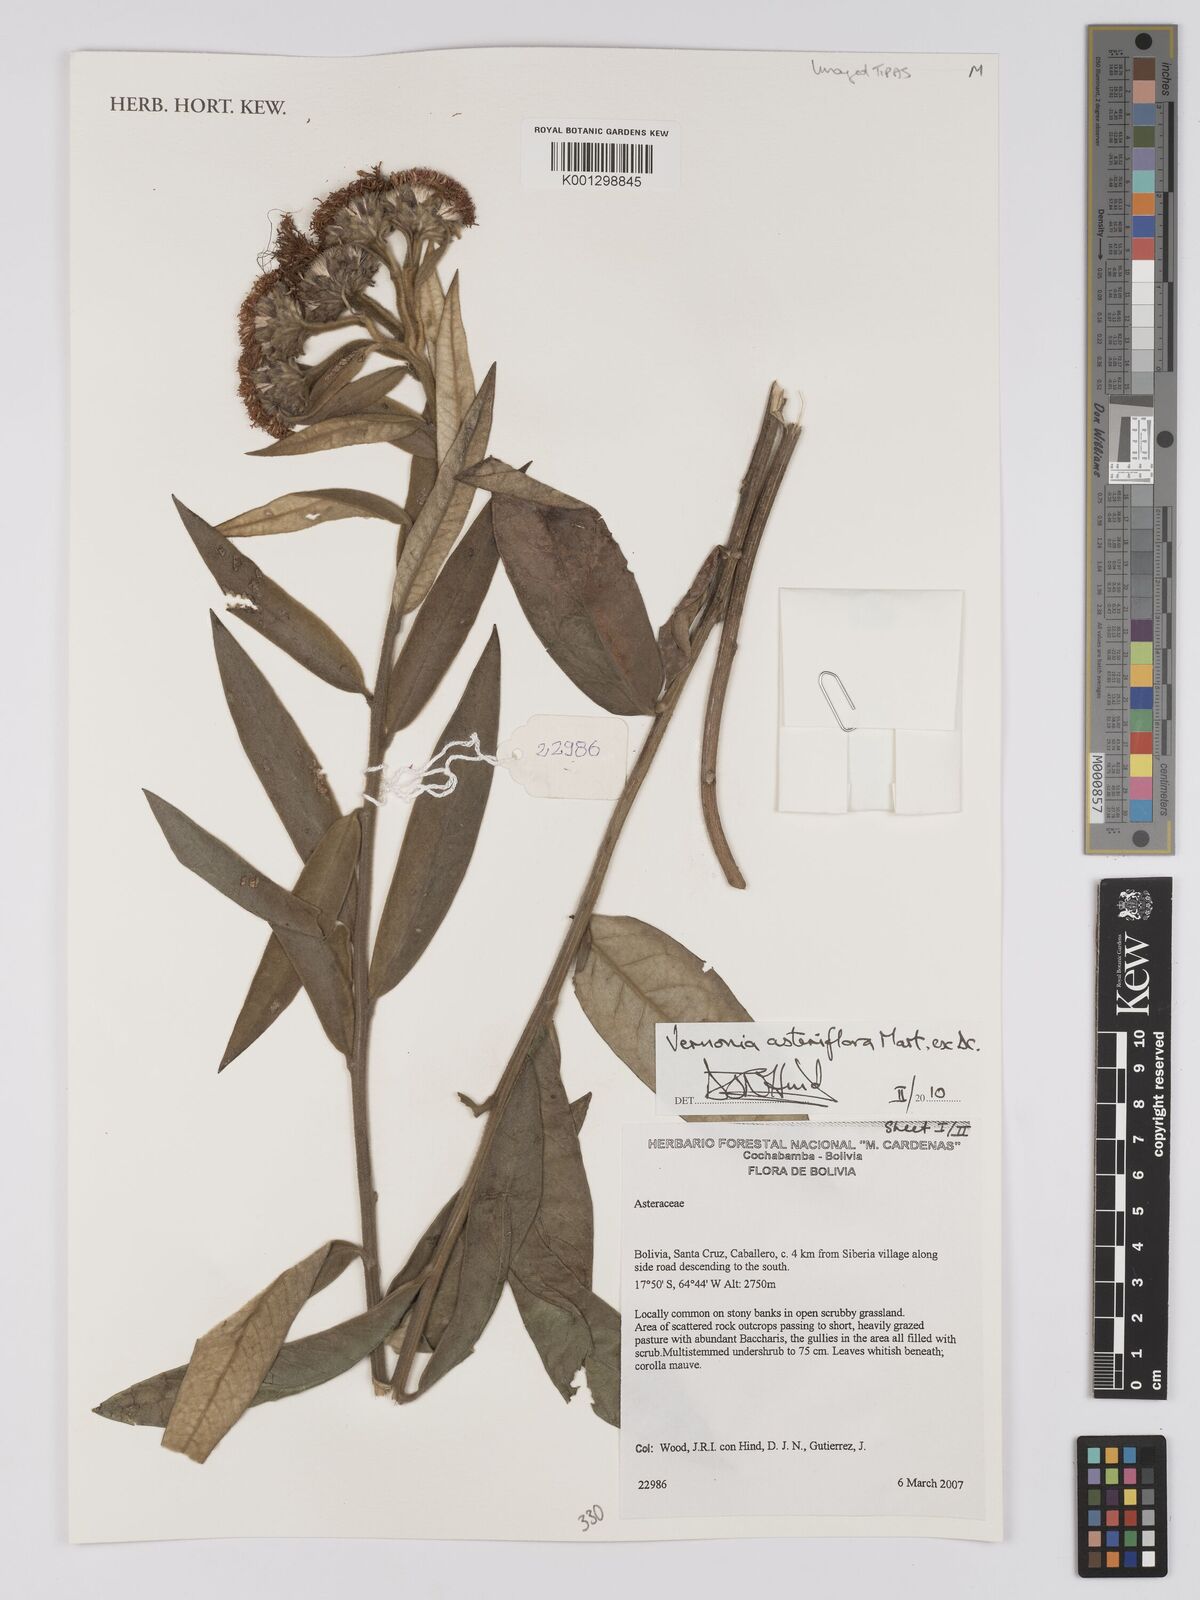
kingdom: Plantae
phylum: Tracheophyta
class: Magnoliopsida
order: Asterales
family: Asteraceae
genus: Lessingianthus
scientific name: Lessingianthus asteriflorus
